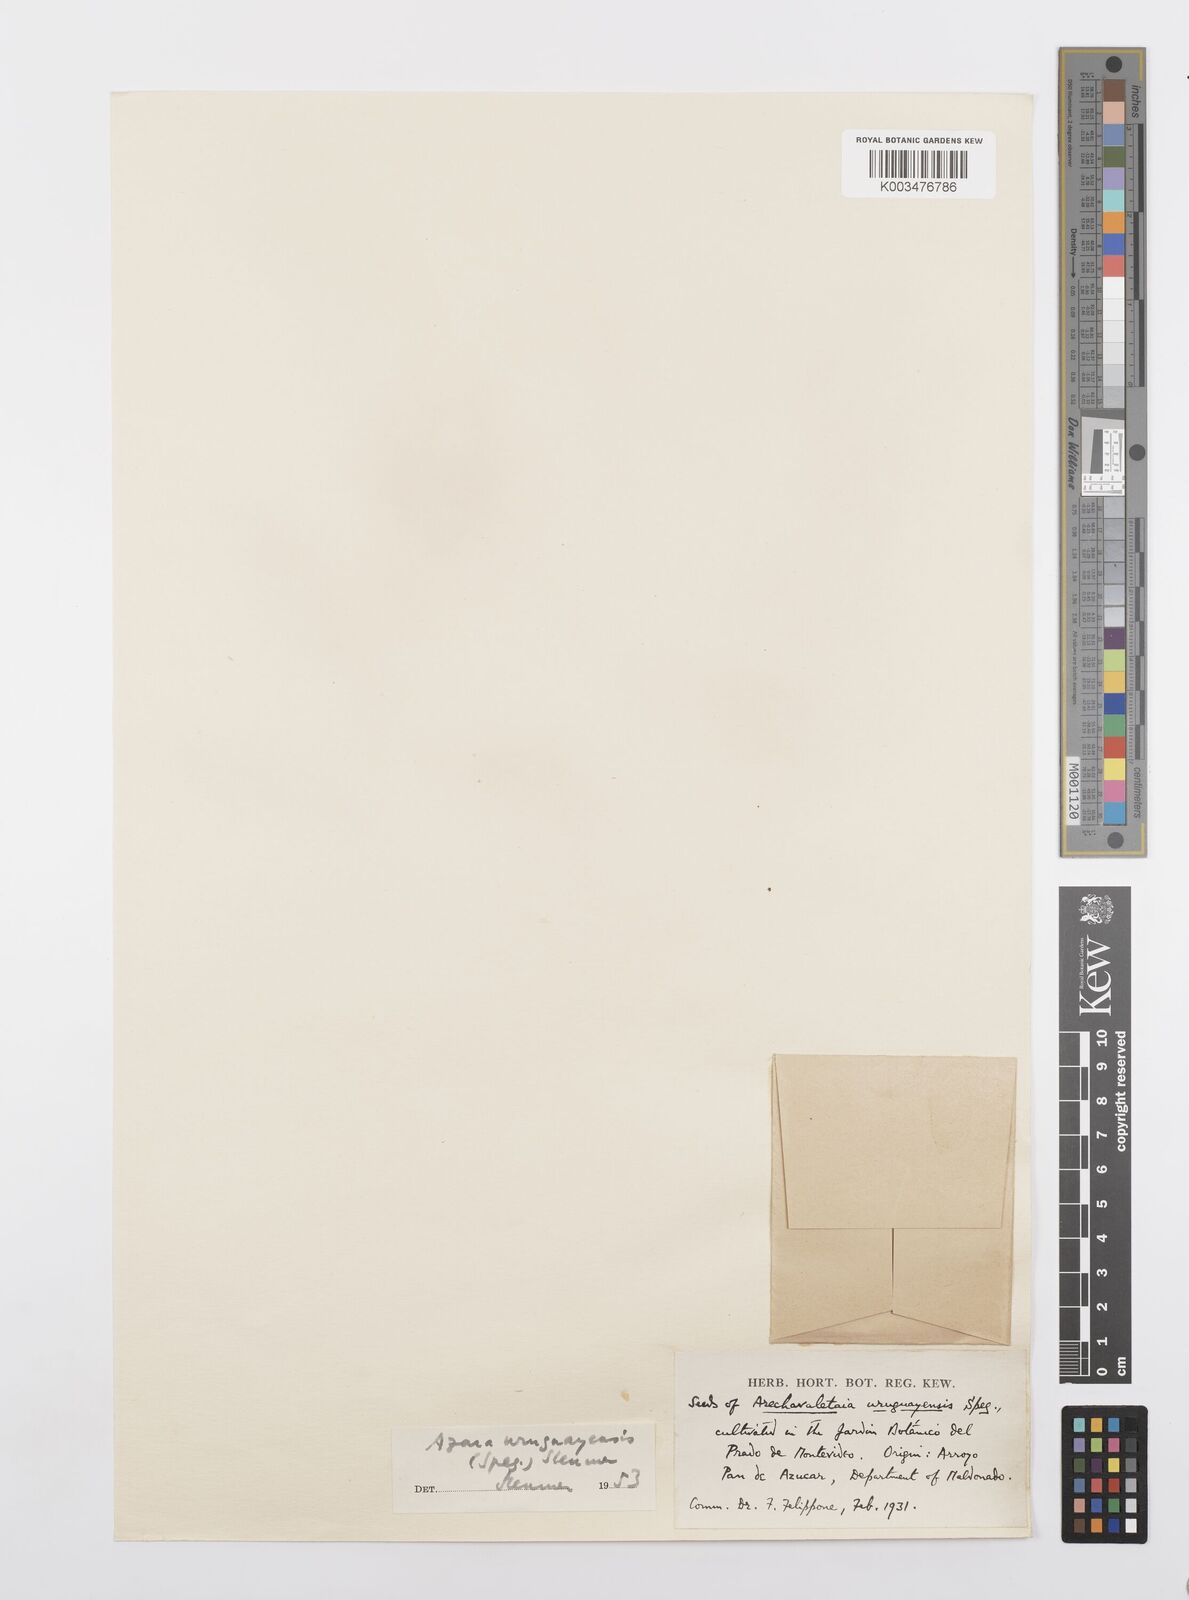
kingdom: Plantae
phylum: Tracheophyta
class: Magnoliopsida
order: Malpighiales
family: Salicaceae
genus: Azara
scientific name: Azara uruguayensis
